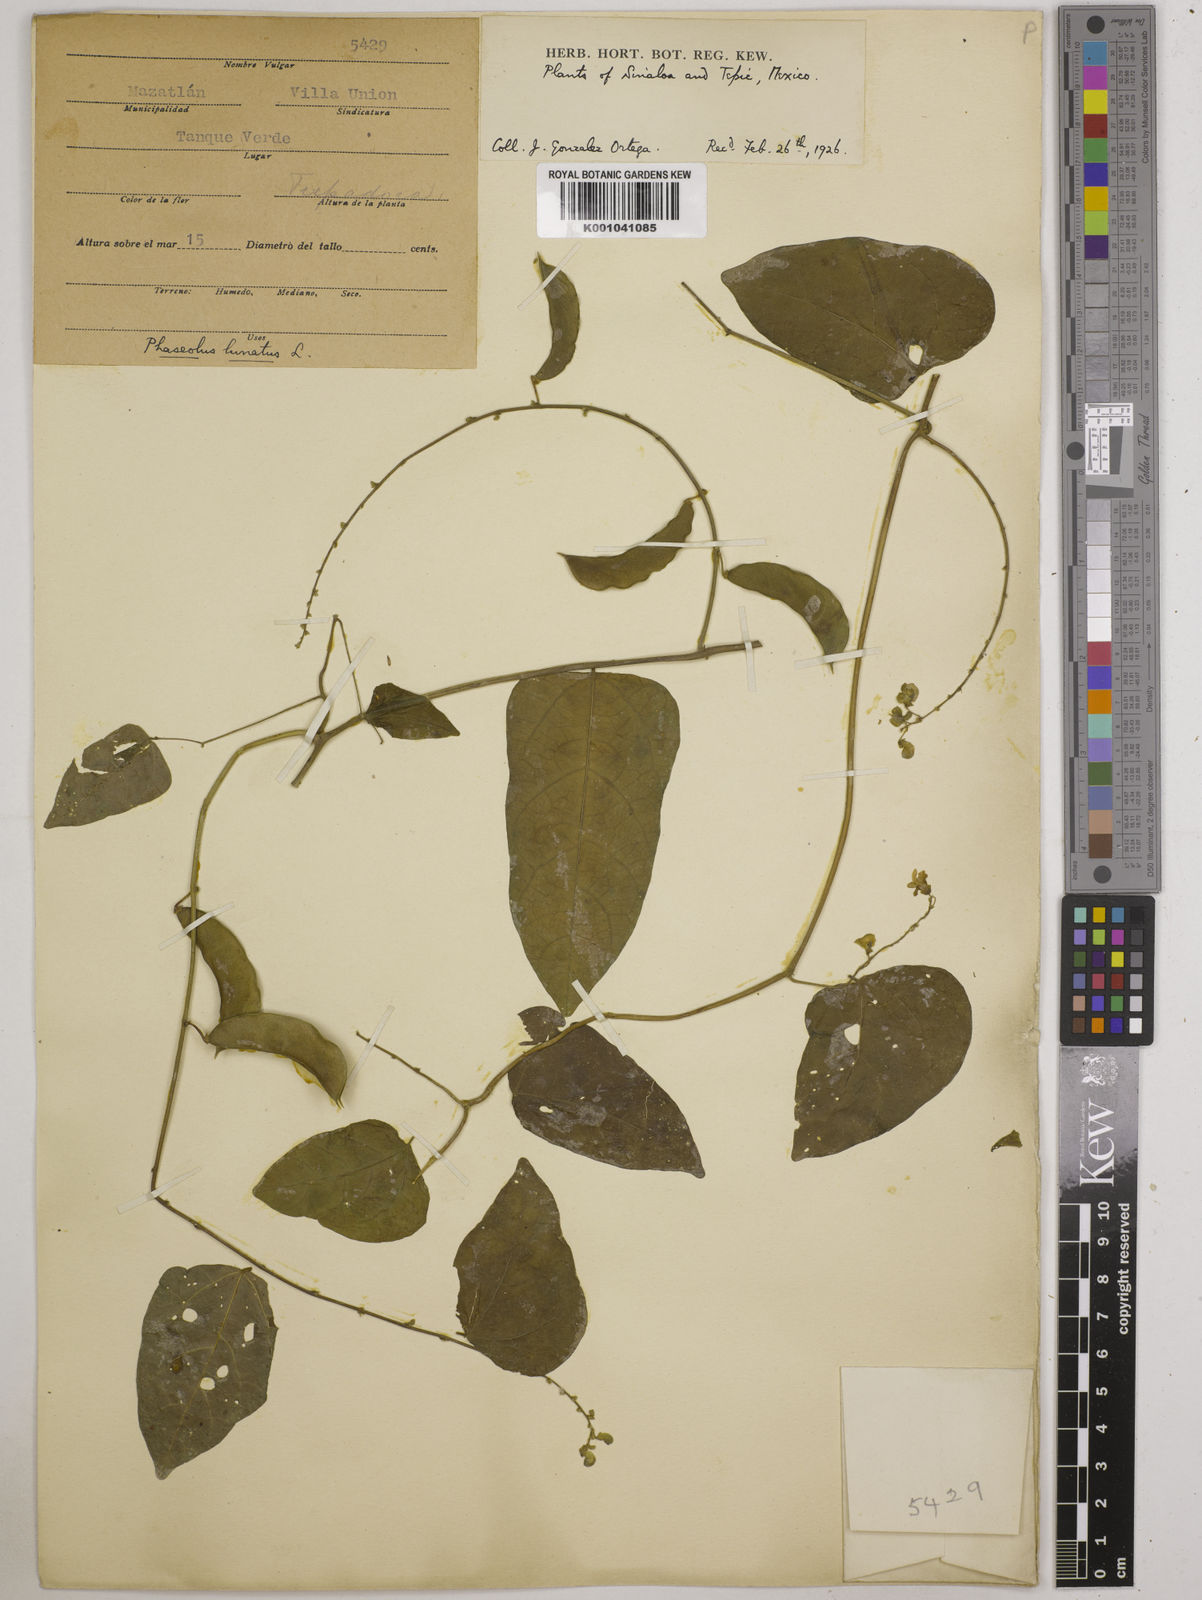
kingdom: Plantae
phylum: Tracheophyta
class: Magnoliopsida
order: Fabales
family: Fabaceae
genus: Phaseolus
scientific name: Phaseolus lunatus
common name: Sieva bean
